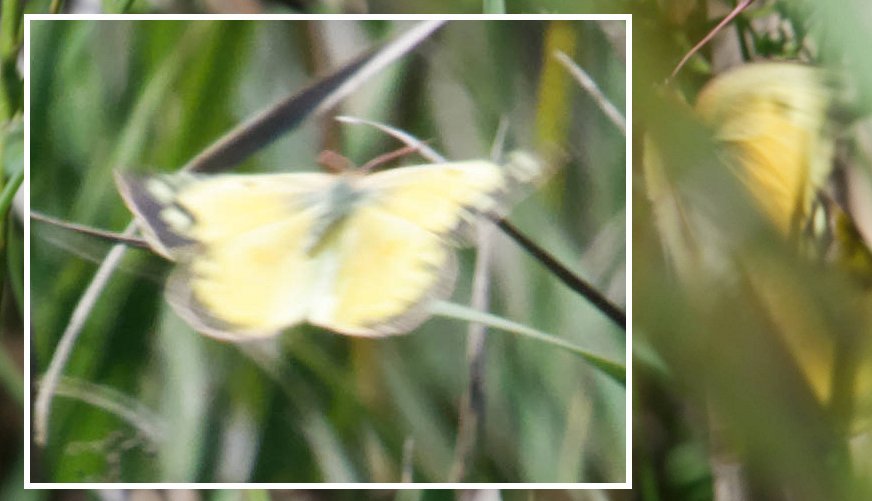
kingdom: Animalia
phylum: Arthropoda
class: Insecta
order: Lepidoptera
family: Pieridae
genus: Colias
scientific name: Colias eurytheme
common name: Orange Sulphur
